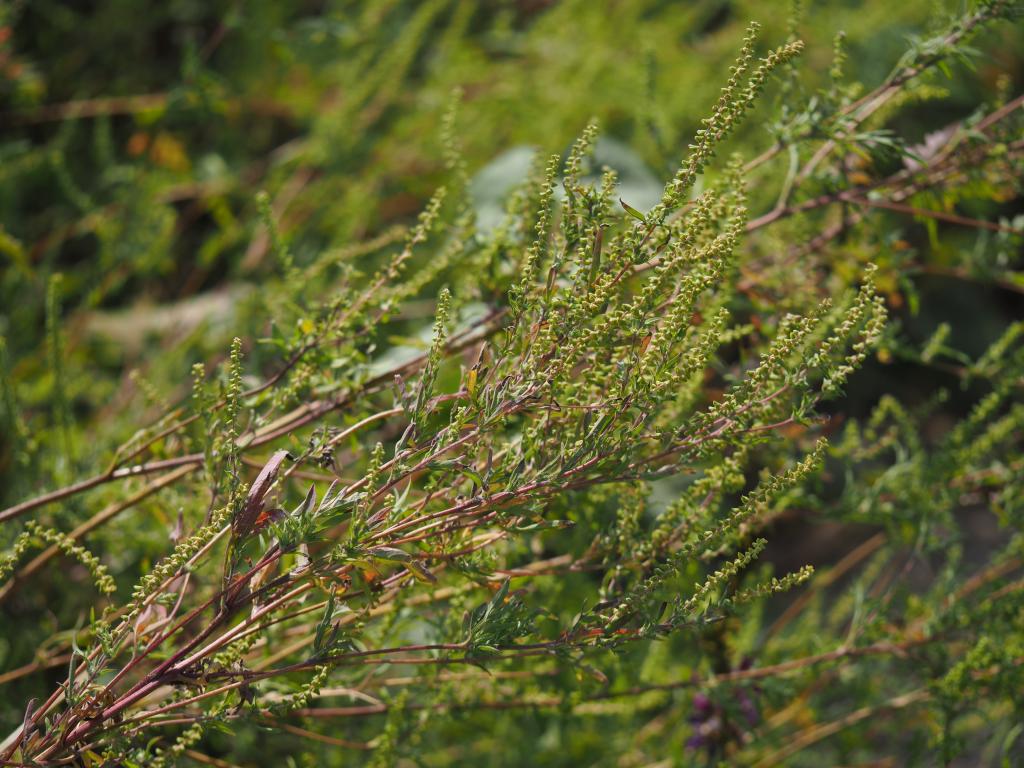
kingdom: Plantae
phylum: Tracheophyta
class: Magnoliopsida
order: Asterales
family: Asteraceae
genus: Ambrosia
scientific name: Ambrosia artemisiifolia
